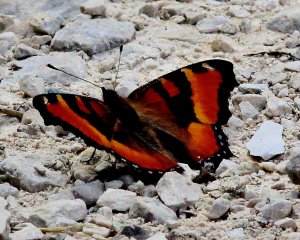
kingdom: Animalia
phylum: Arthropoda
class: Insecta
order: Lepidoptera
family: Nymphalidae
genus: Aglais
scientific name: Aglais milberti
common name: Milbert's Tortoiseshell
